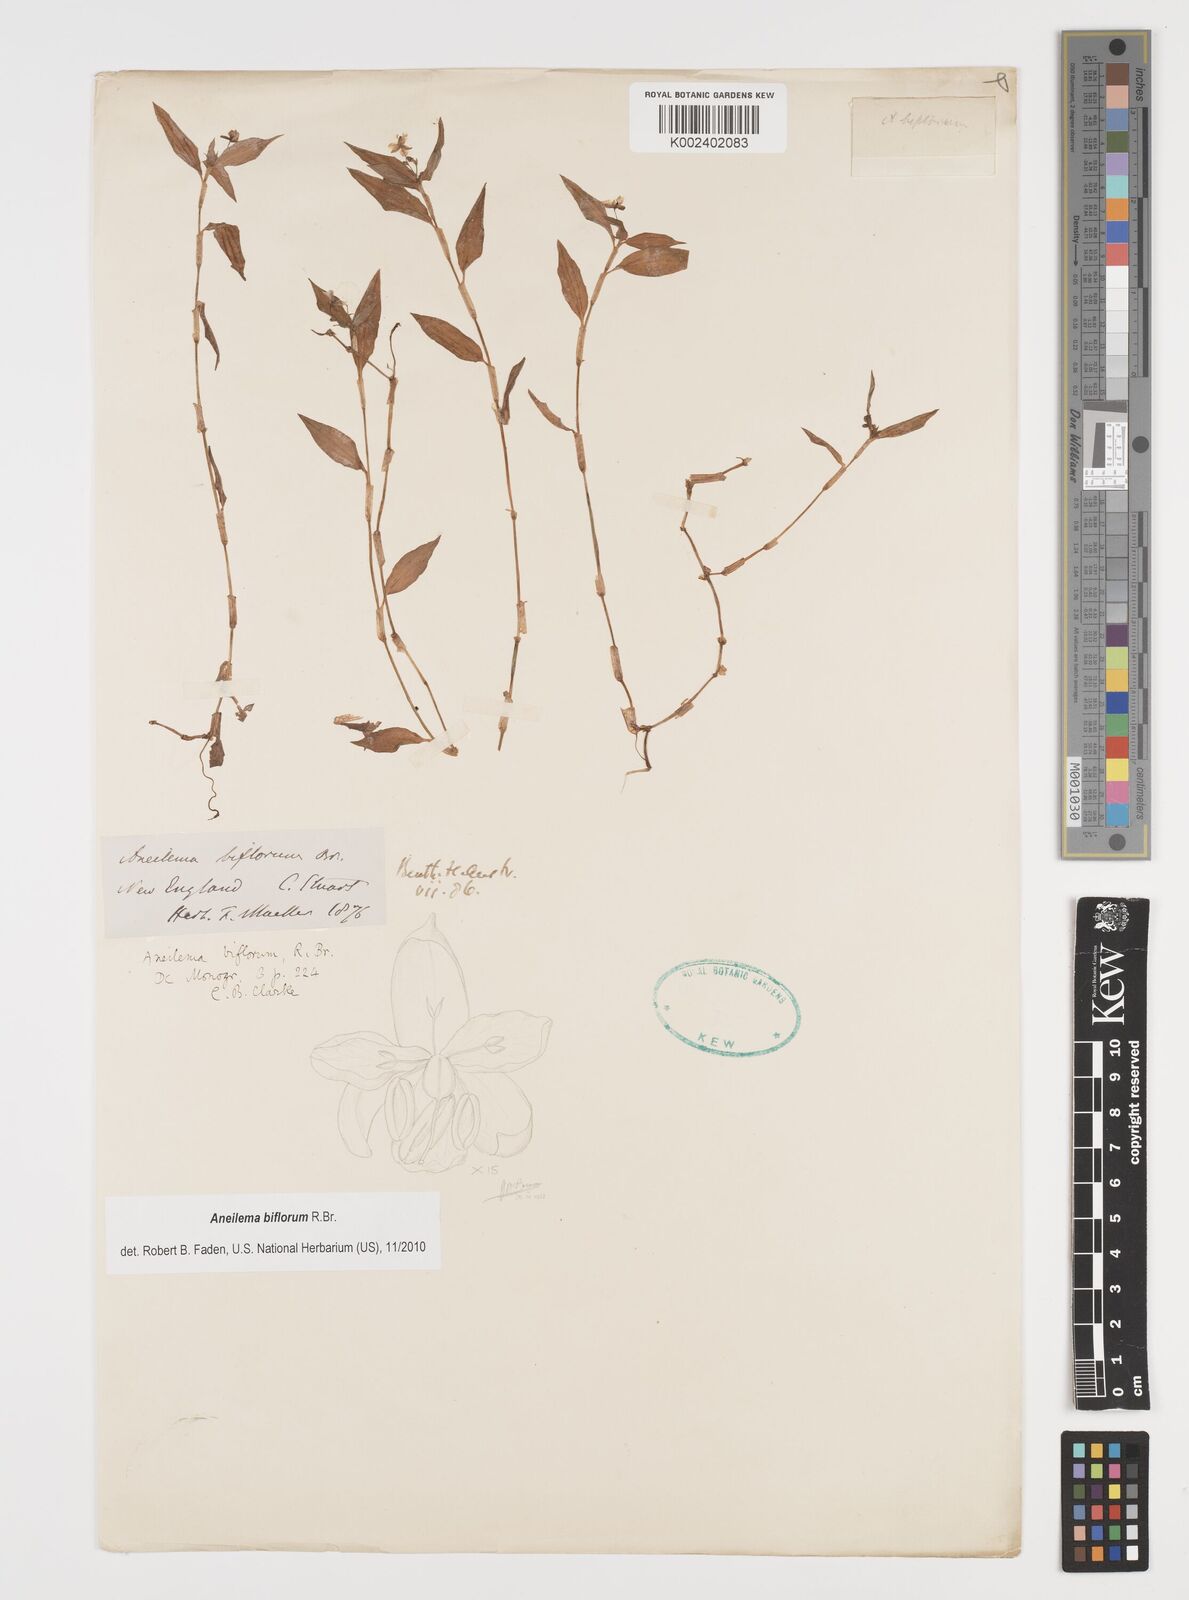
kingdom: Plantae
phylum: Tracheophyta
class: Liliopsida
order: Commelinales
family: Commelinaceae
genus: Aneilema
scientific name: Aneilema biflorum
